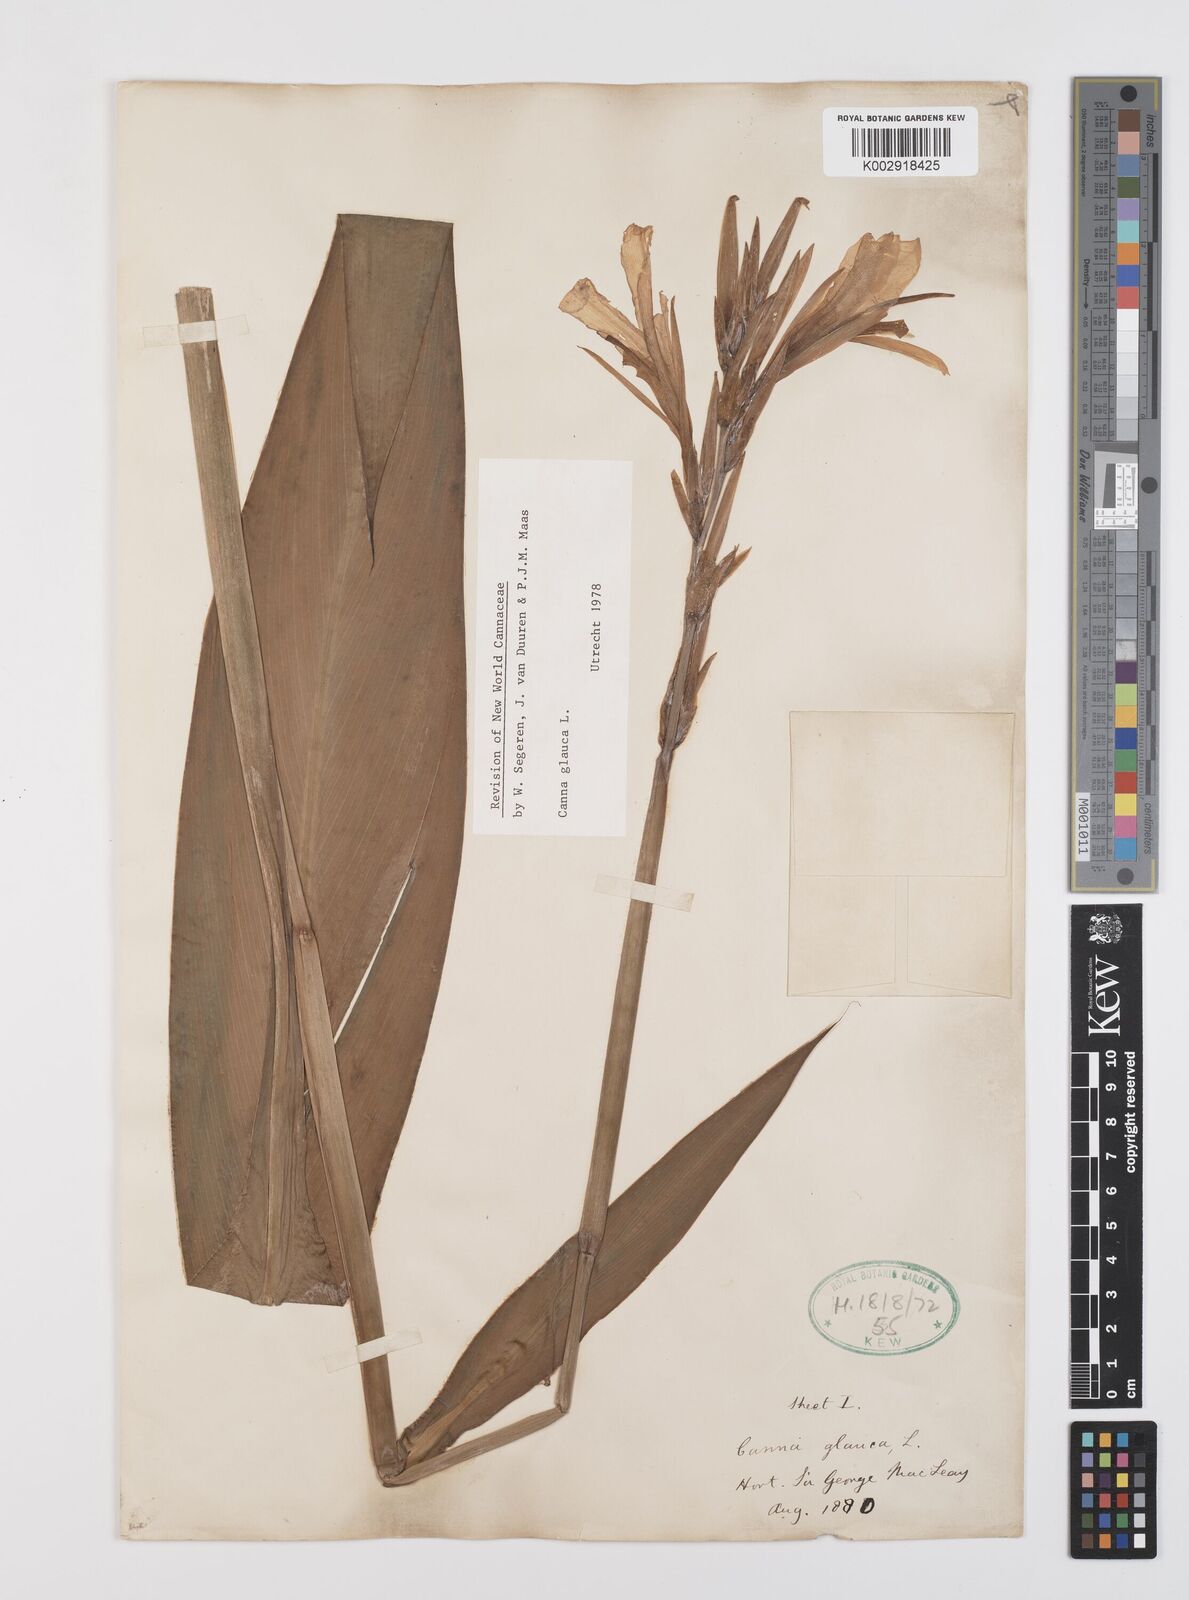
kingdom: Plantae
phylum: Tracheophyta
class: Liliopsida
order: Zingiberales
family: Cannaceae
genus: Canna
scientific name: Canna glauca
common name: Louisiana canna
